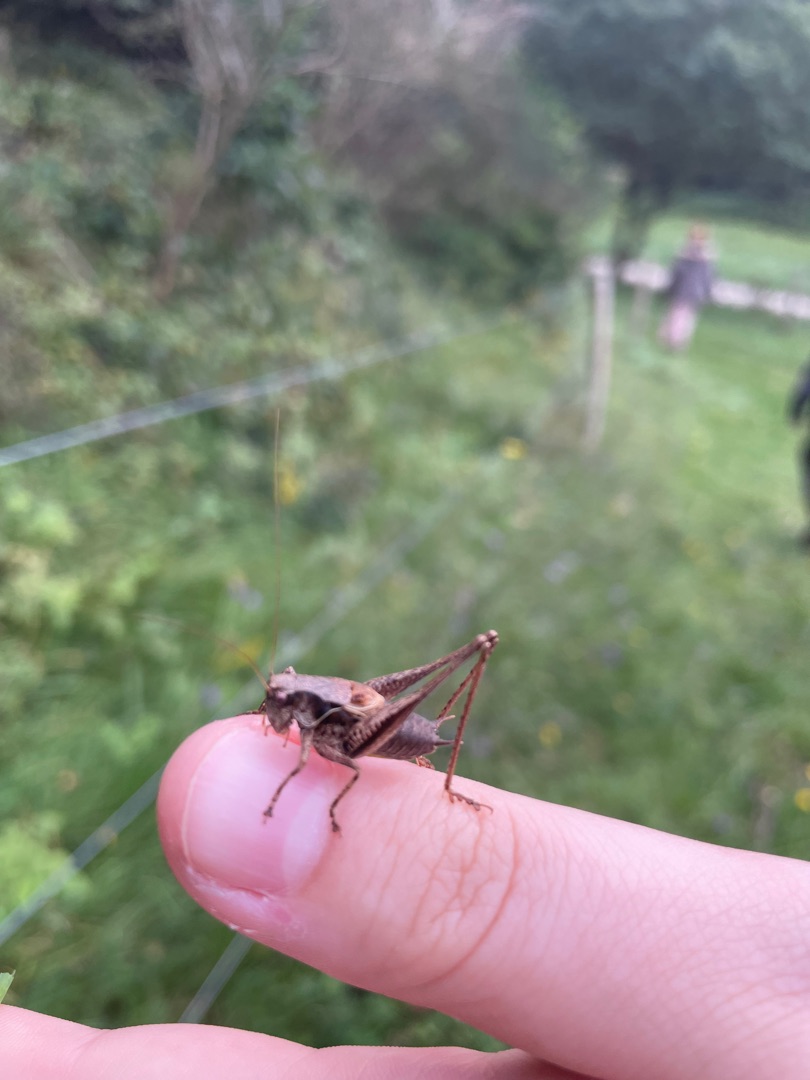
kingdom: Animalia
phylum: Arthropoda
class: Insecta
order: Orthoptera
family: Tettigoniidae
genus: Pholidoptera
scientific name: Pholidoptera griseoaptera
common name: Buskgræshoppe
